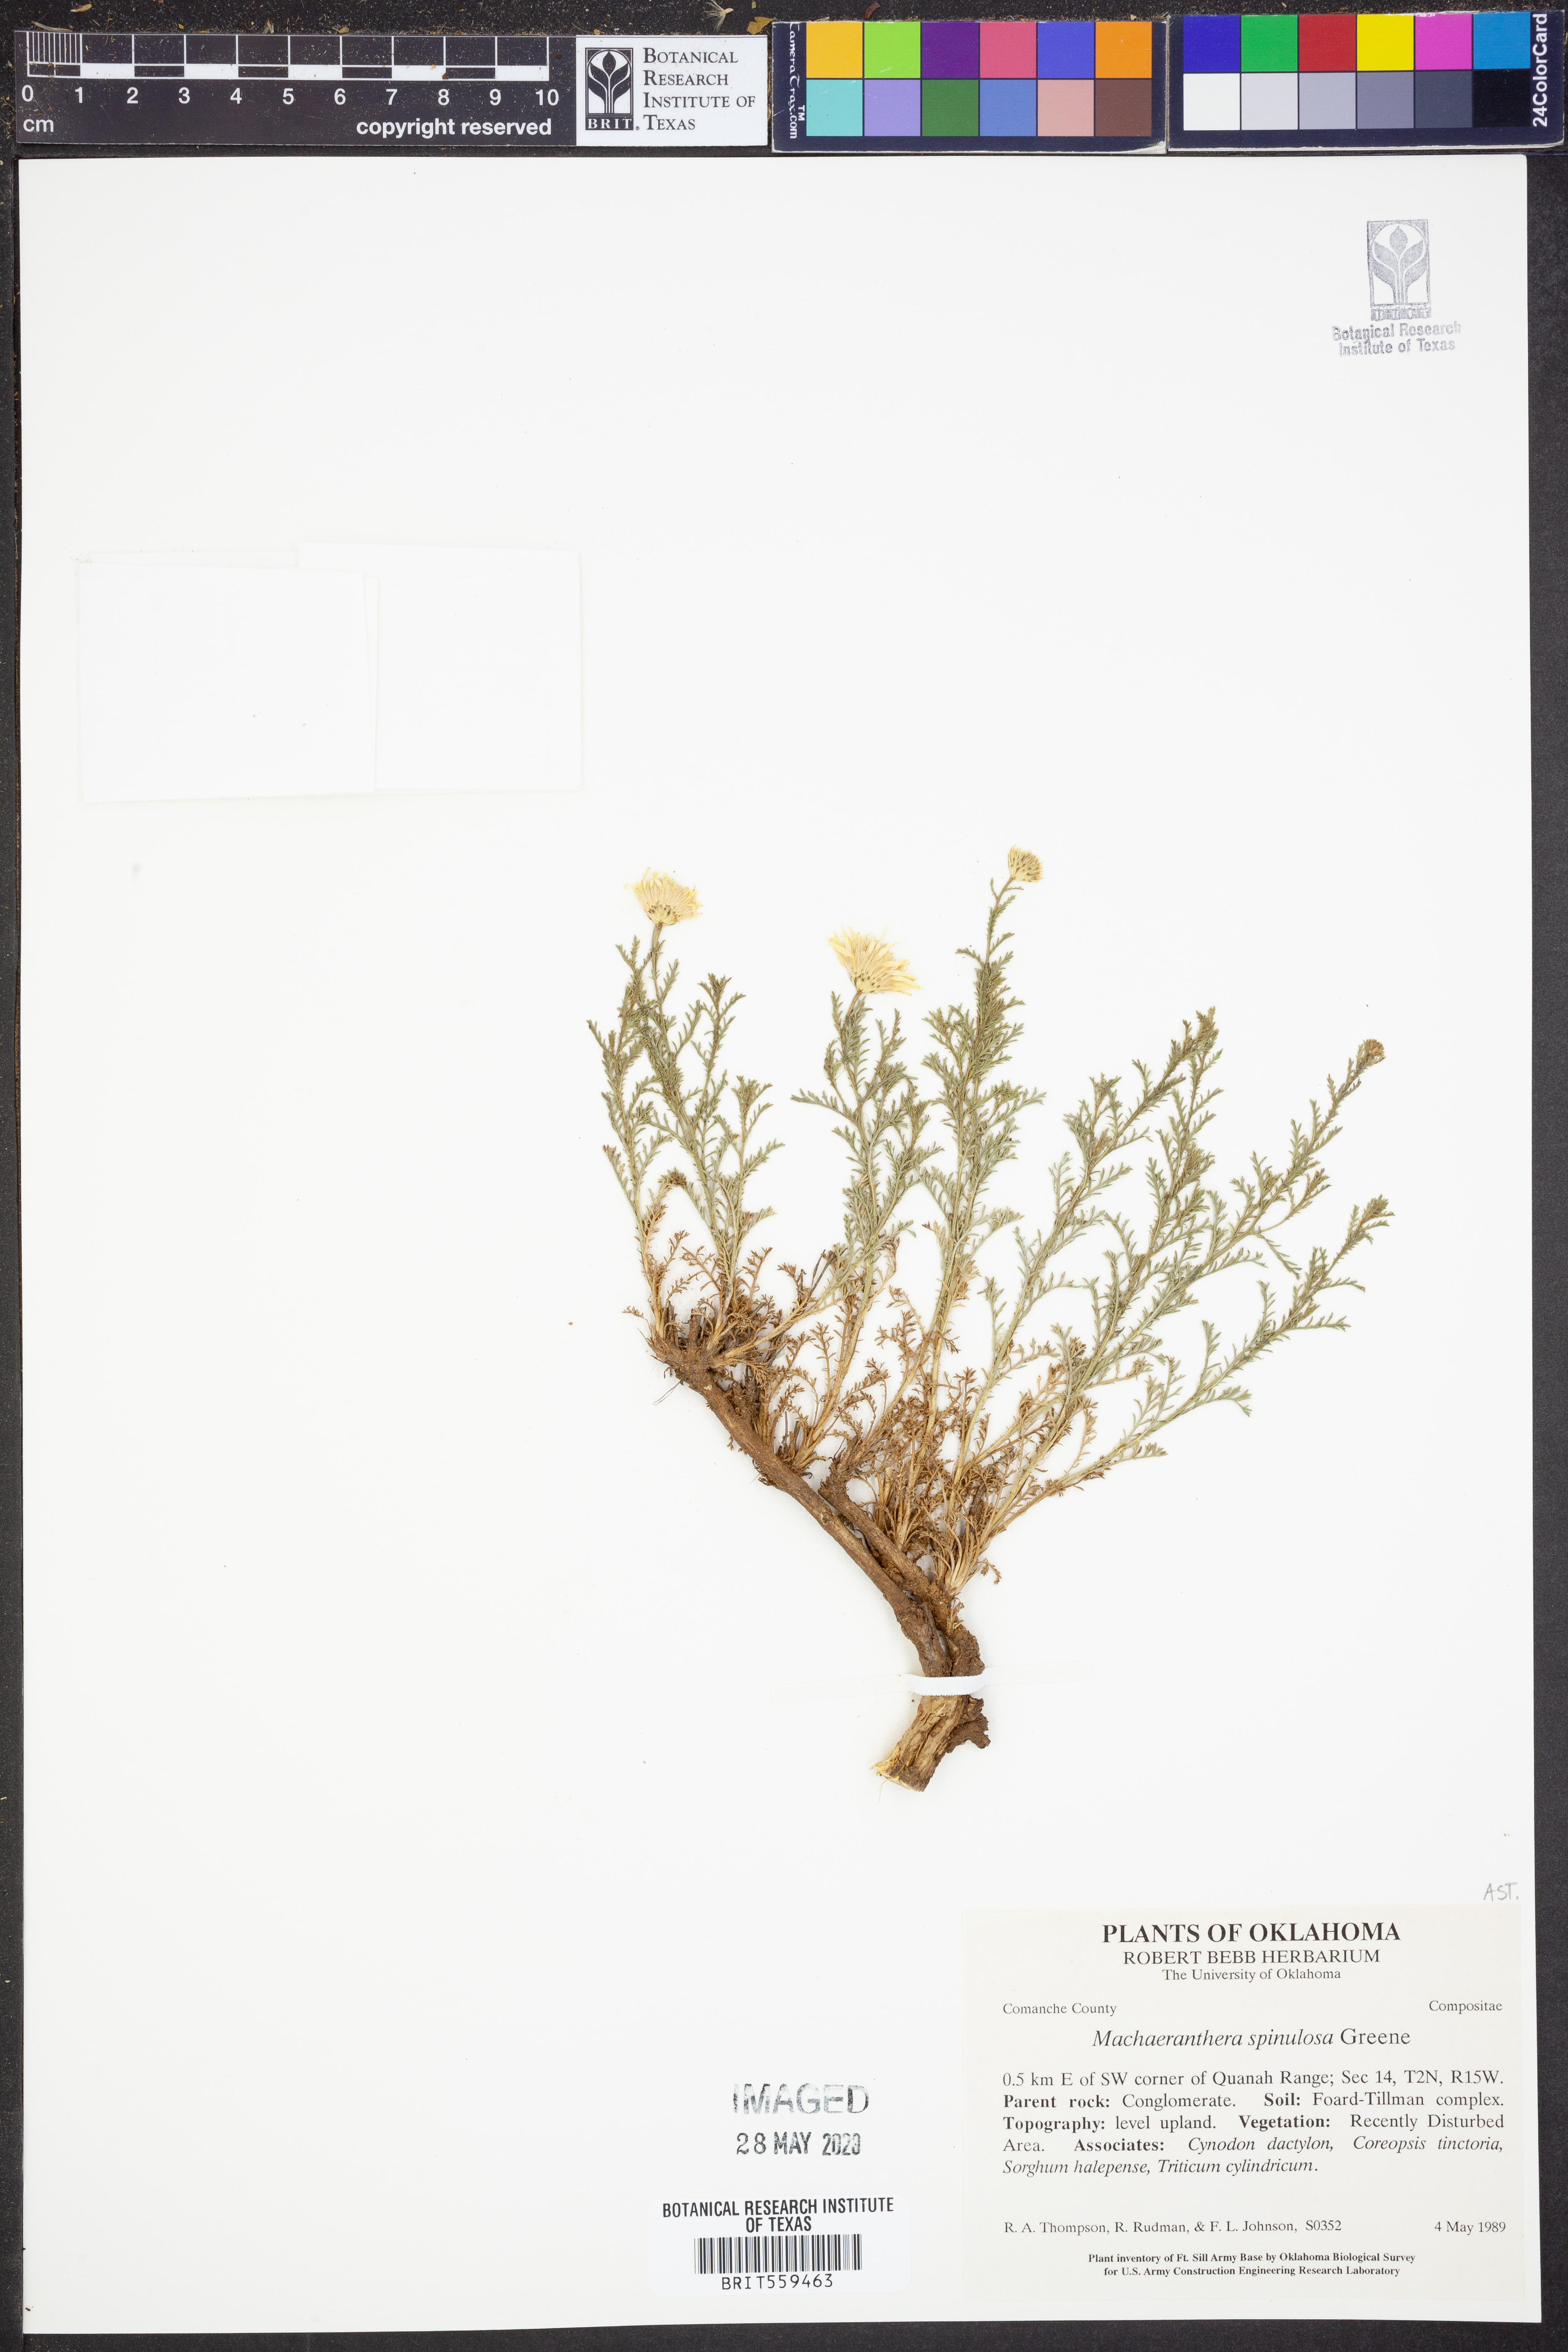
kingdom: Plantae
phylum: Tracheophyta
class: Magnoliopsida
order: Asterales
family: Asteraceae
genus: Dieteria
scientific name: Dieteria canescens
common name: Hoary-aster
